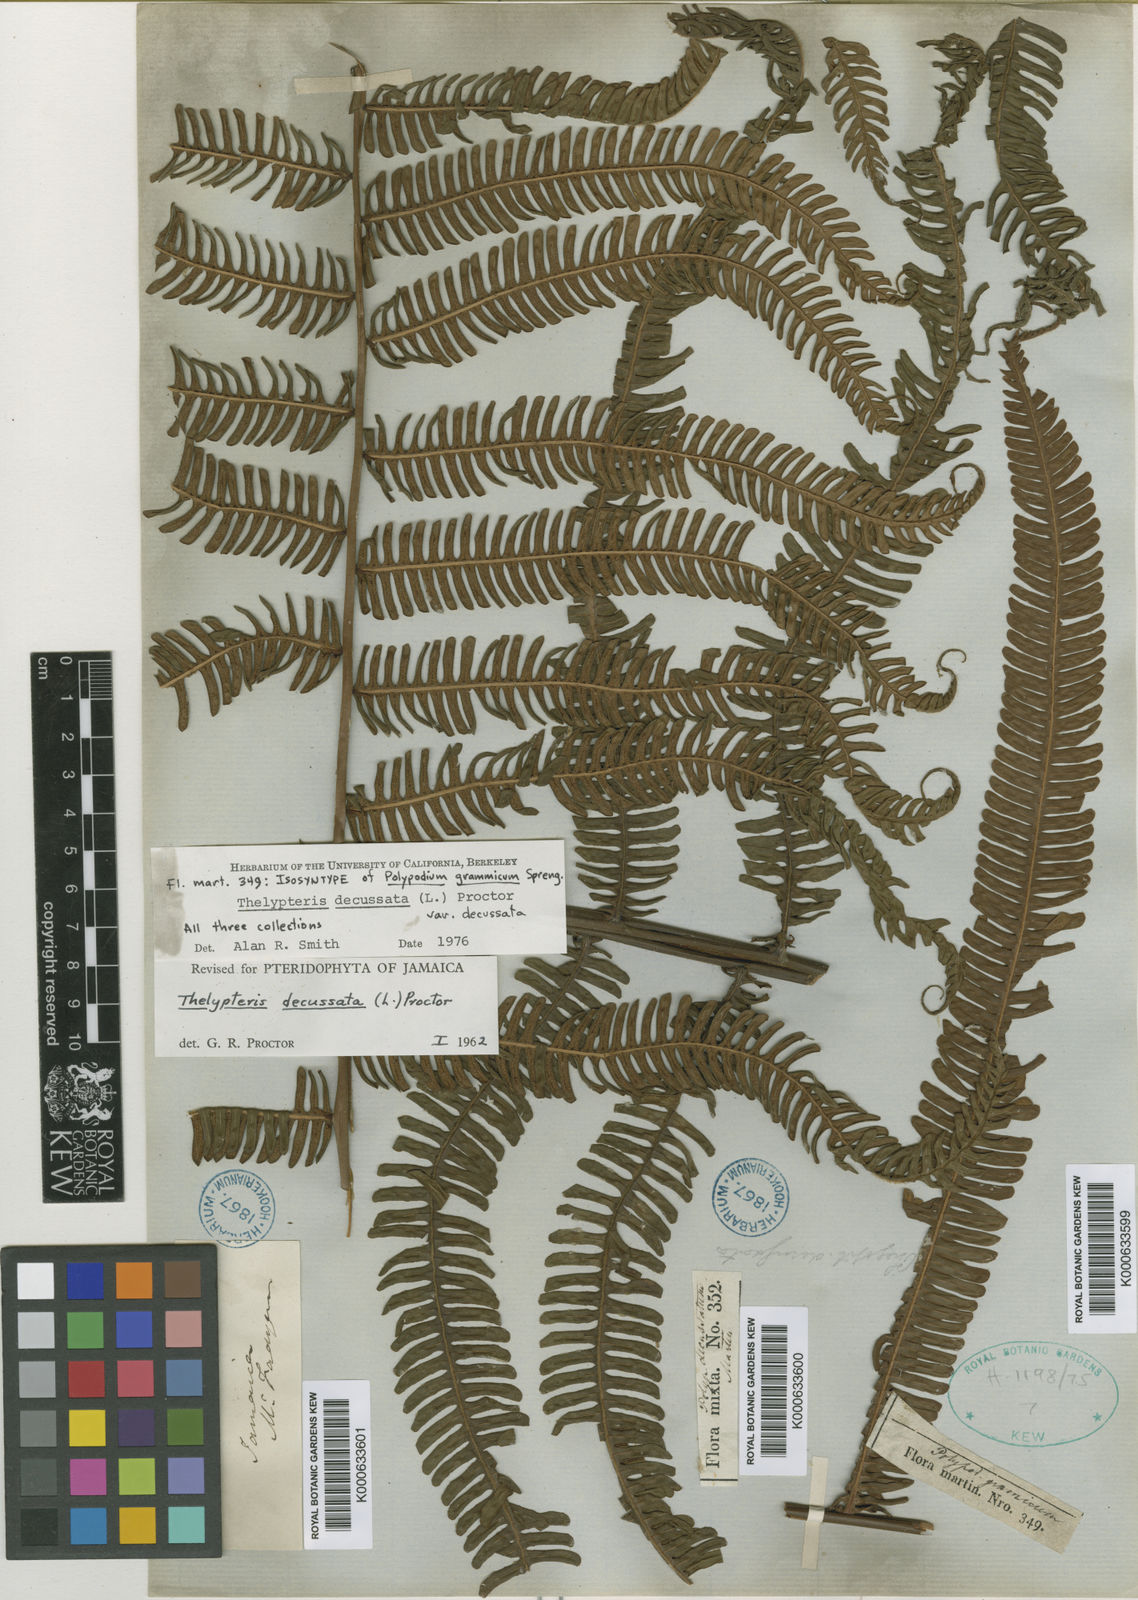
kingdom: Plantae
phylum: Tracheophyta
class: Polypodiopsida
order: Polypodiales
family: Thelypteridaceae
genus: Glaphyropteris
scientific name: Glaphyropteris
